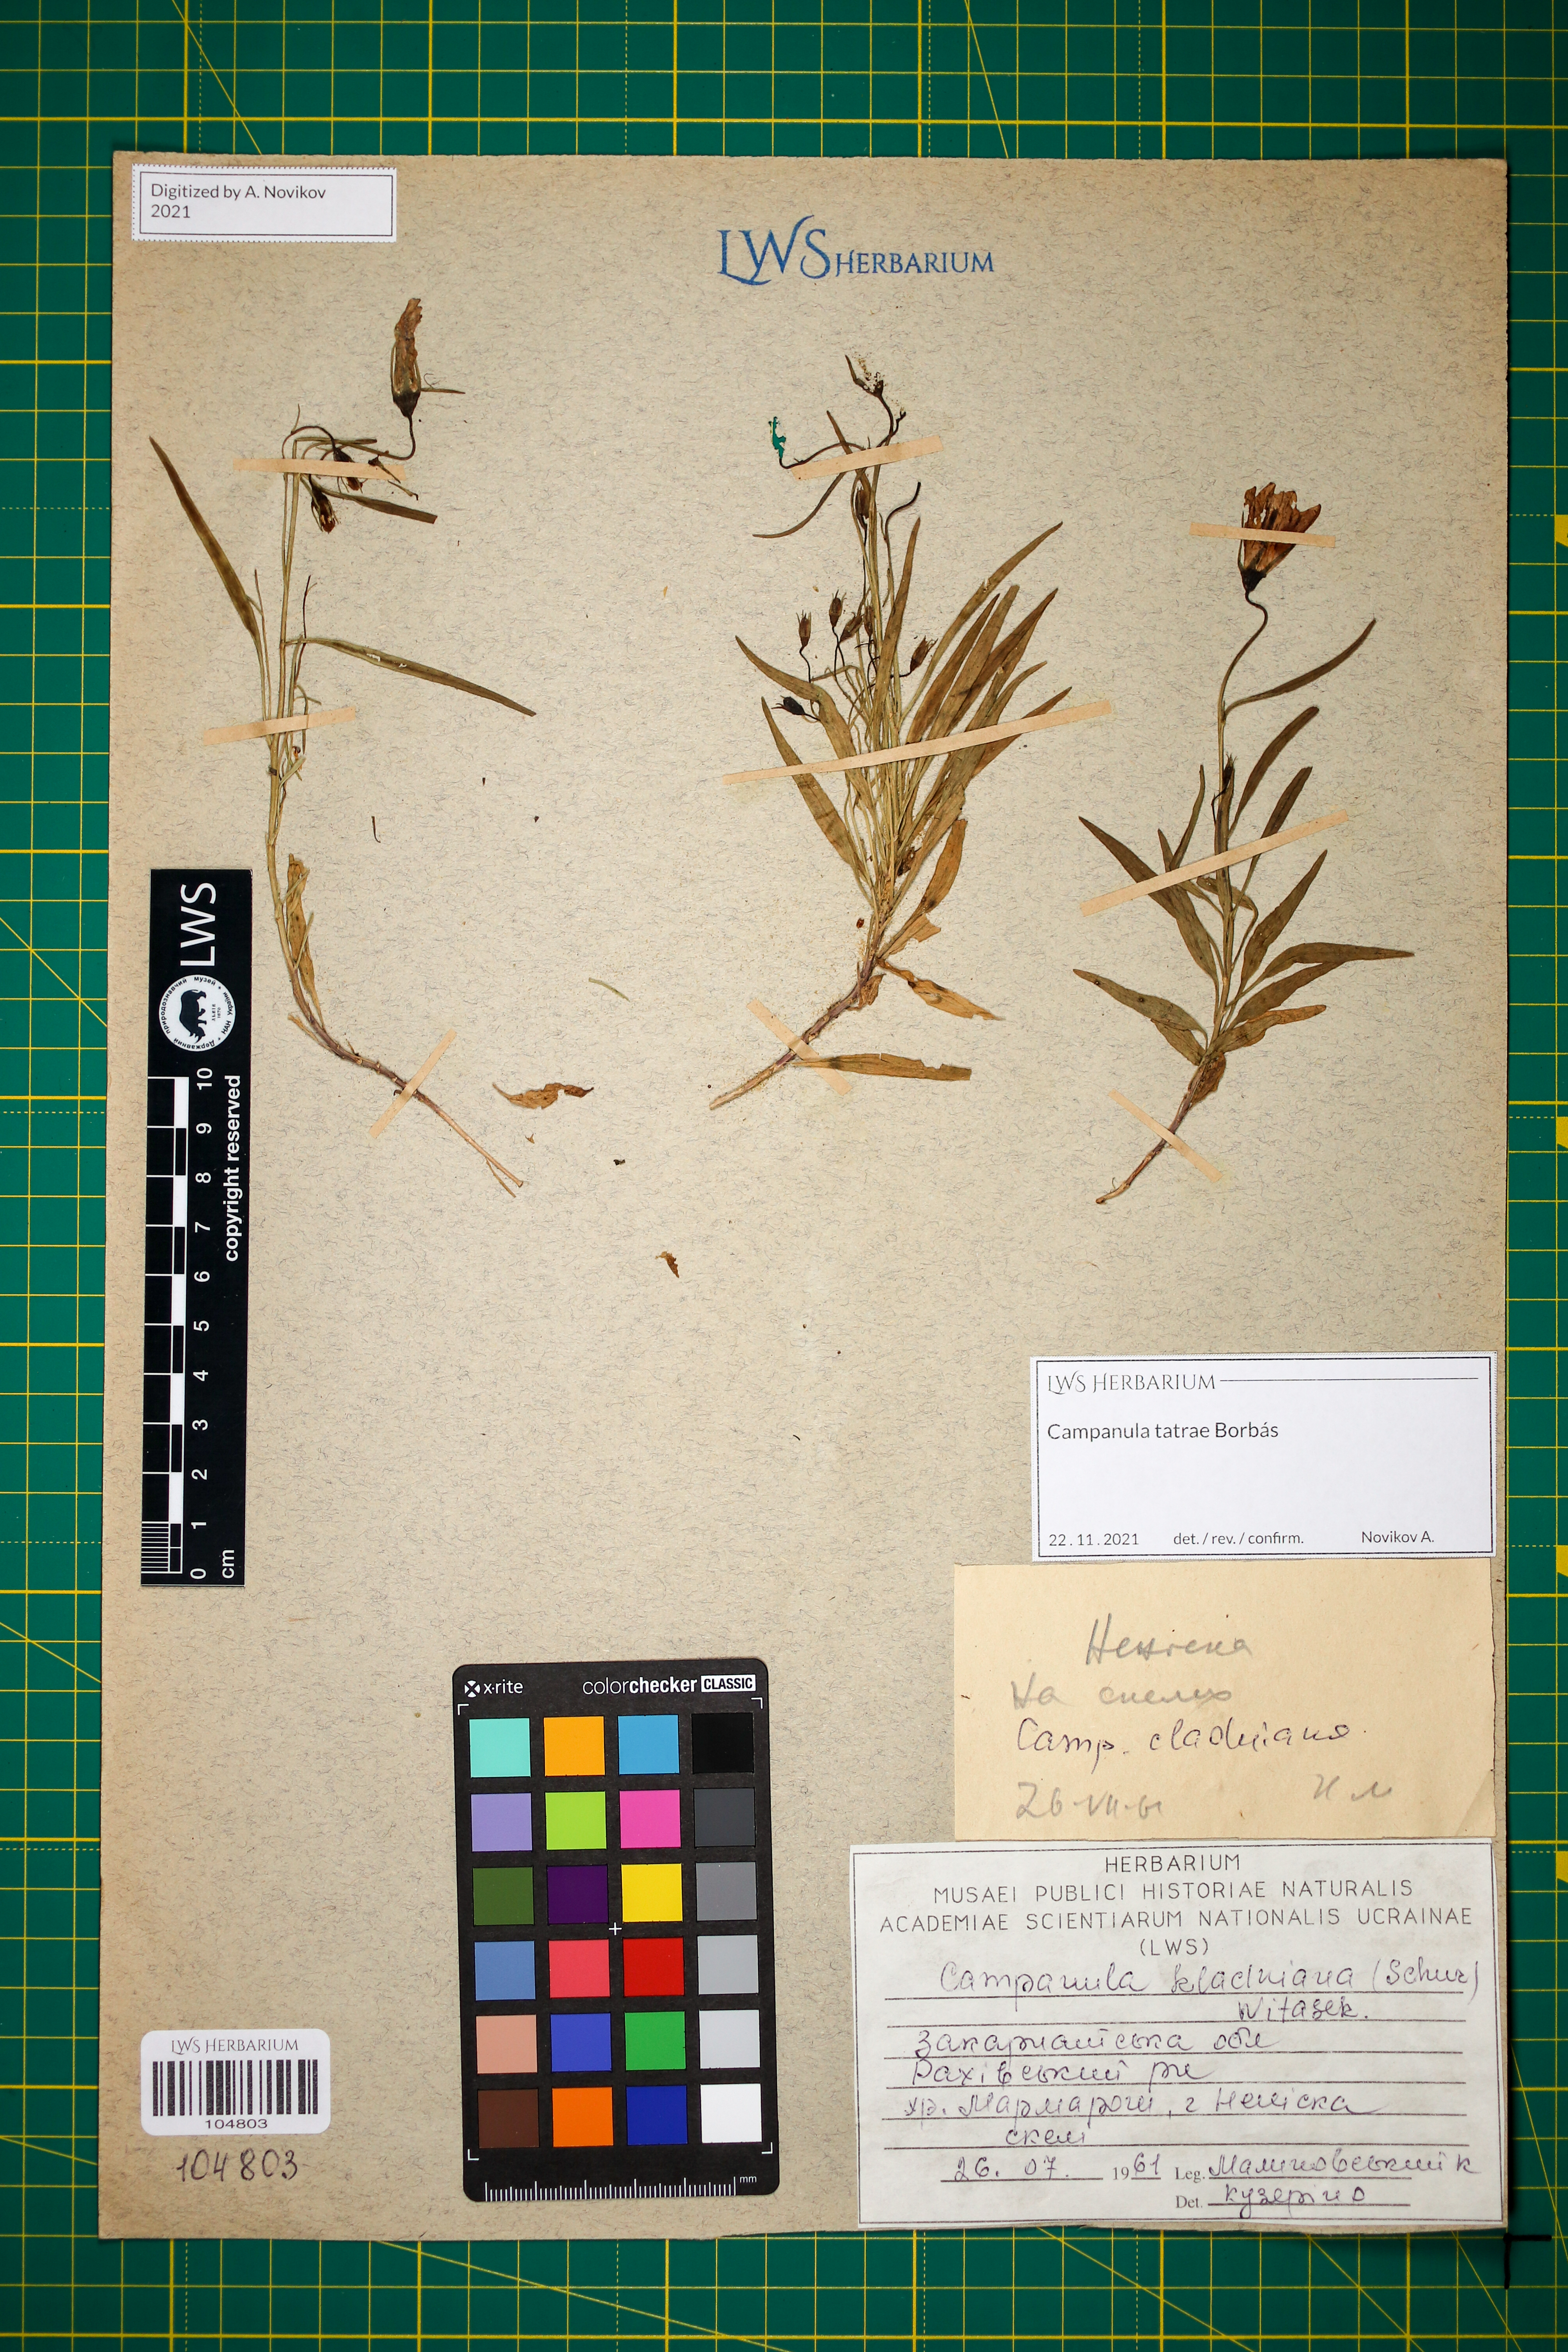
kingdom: Plantae
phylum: Tracheophyta
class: Magnoliopsida
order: Asterales
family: Campanulaceae
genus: Campanula
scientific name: Campanula kladniana
